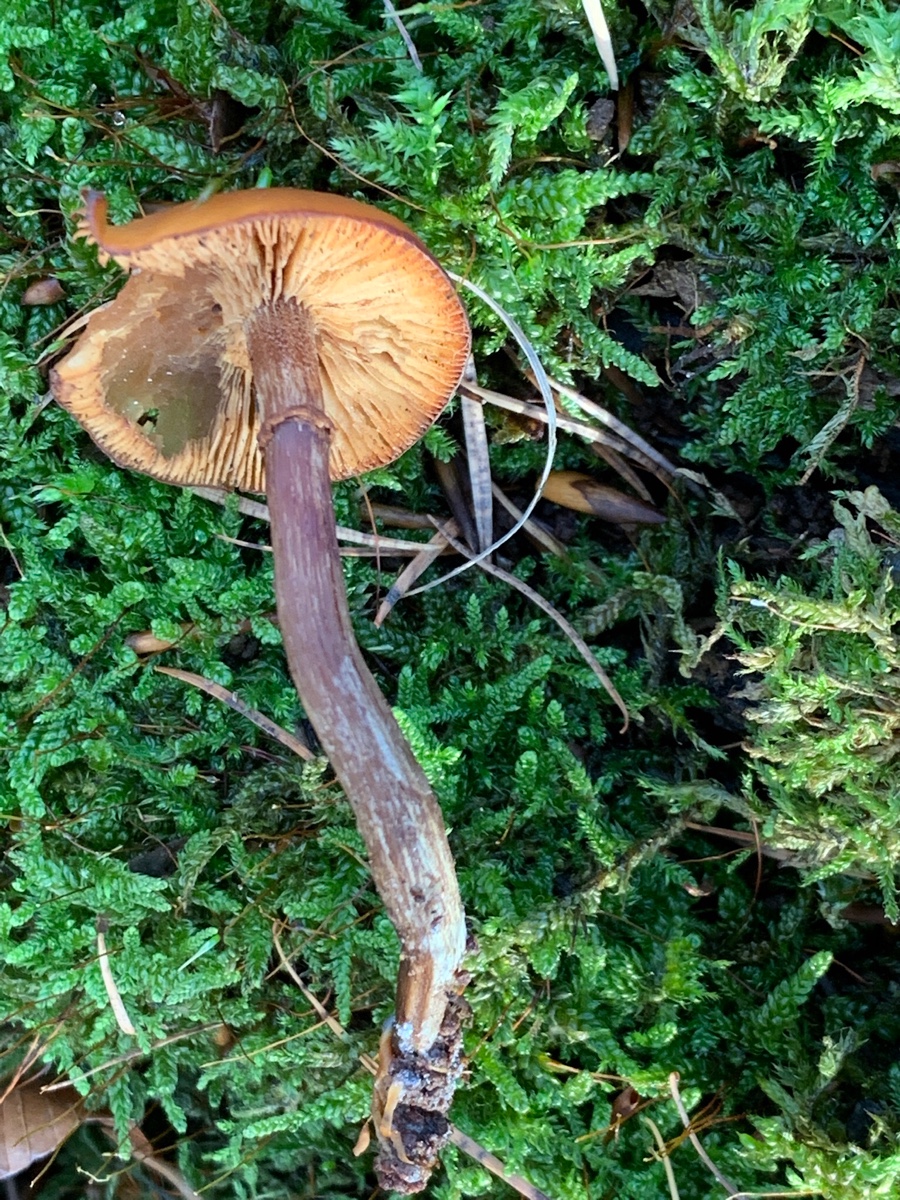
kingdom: Fungi
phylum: Basidiomycota
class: Agaricomycetes
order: Agaricales
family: Hymenogastraceae
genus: Galerina
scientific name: Galerina marginata
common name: randbæltet hjelmhat
